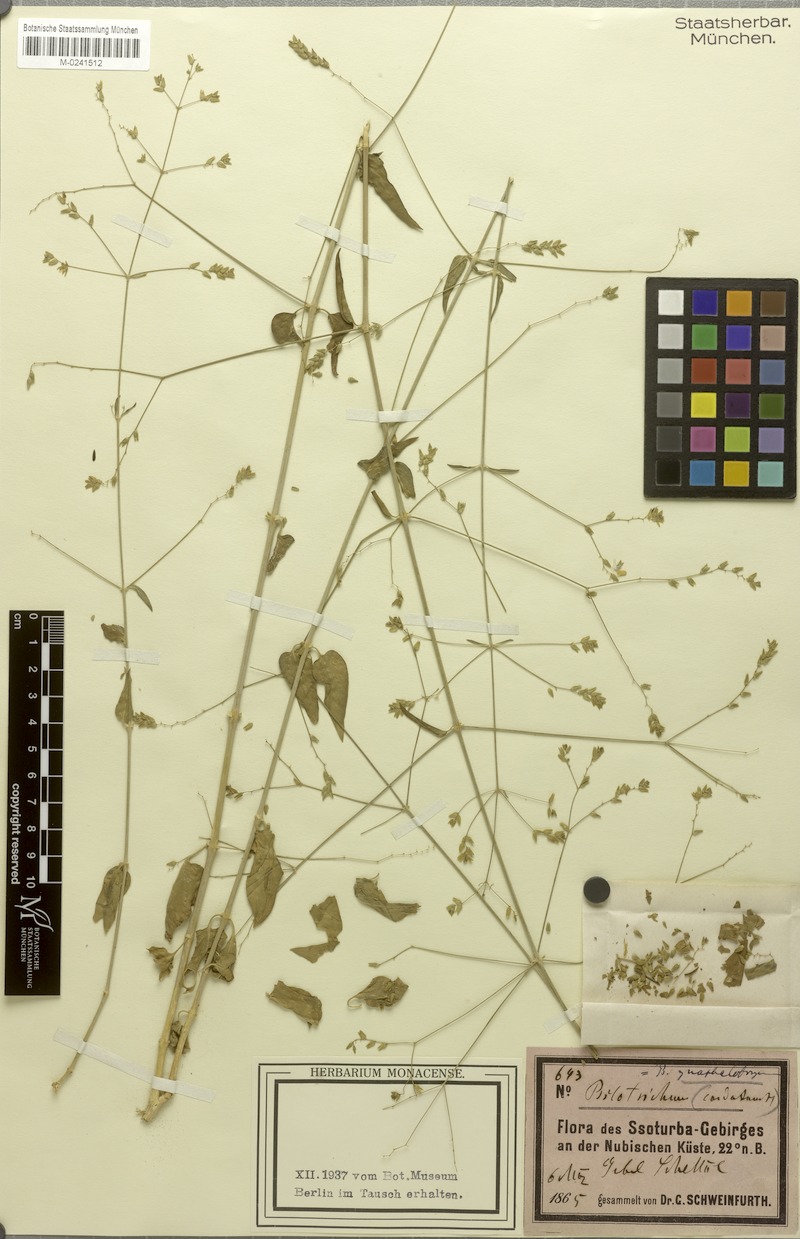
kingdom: Plantae
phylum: Tracheophyta
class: Magnoliopsida
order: Caryophyllales
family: Amaranthaceae
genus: Psilotrichum
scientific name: Psilotrichum gnaphalobryum
